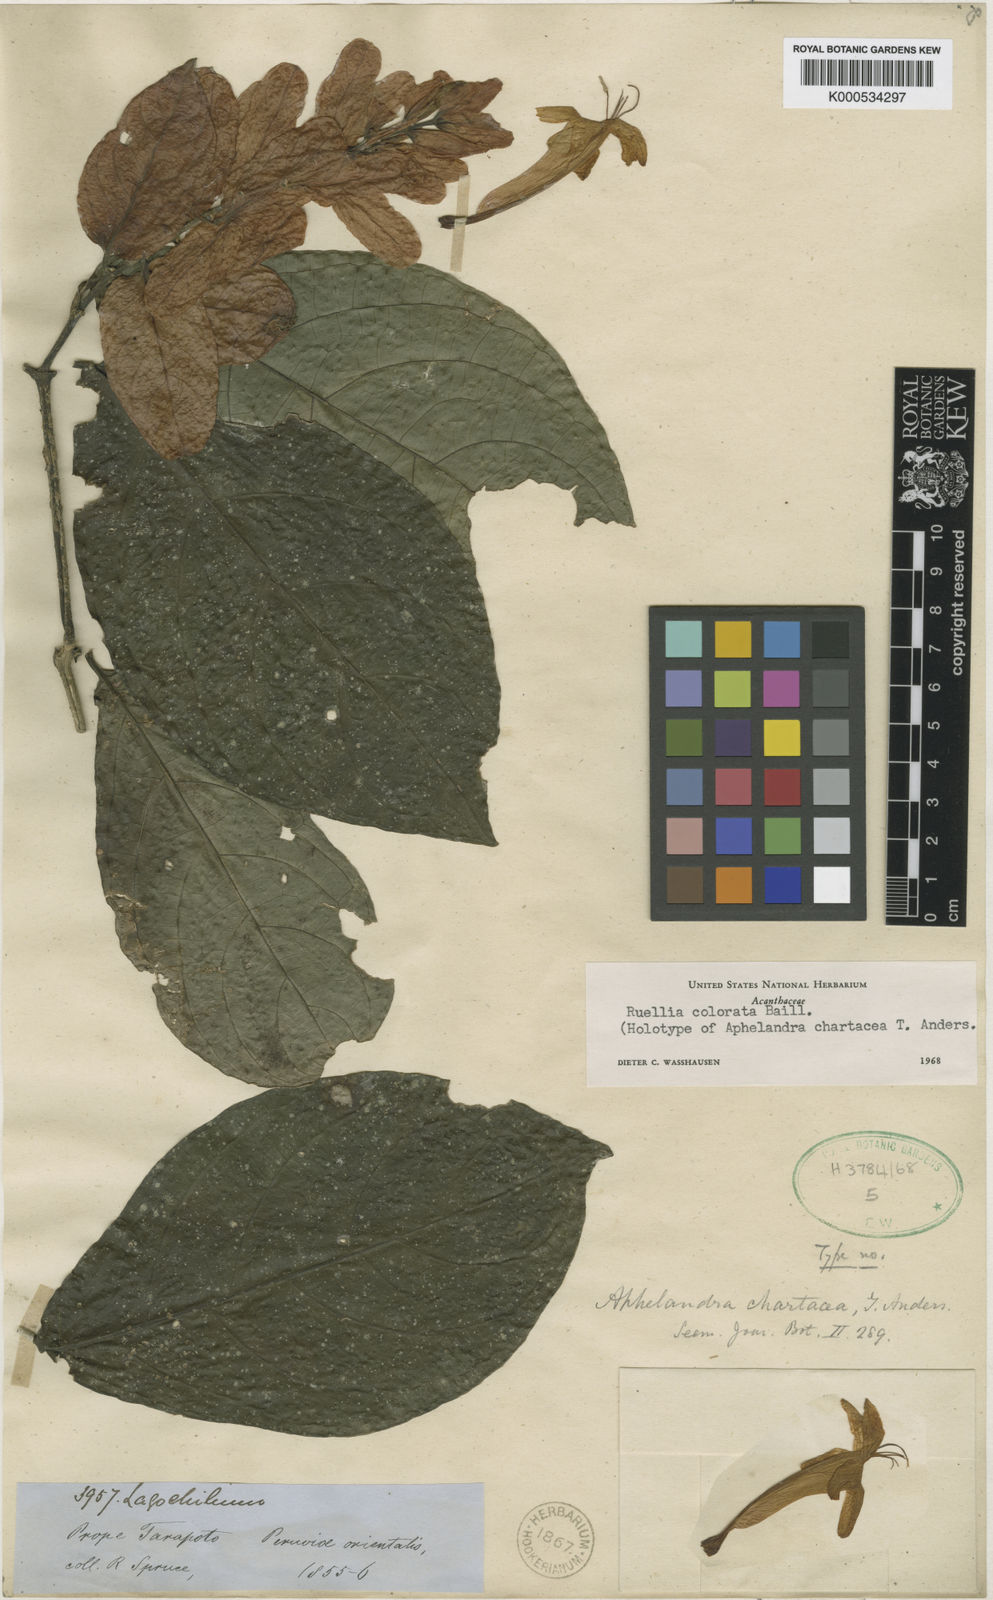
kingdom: Plantae
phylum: Tracheophyta
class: Magnoliopsida
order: Lamiales
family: Acanthaceae
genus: Ruellia
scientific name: Ruellia chartacea
